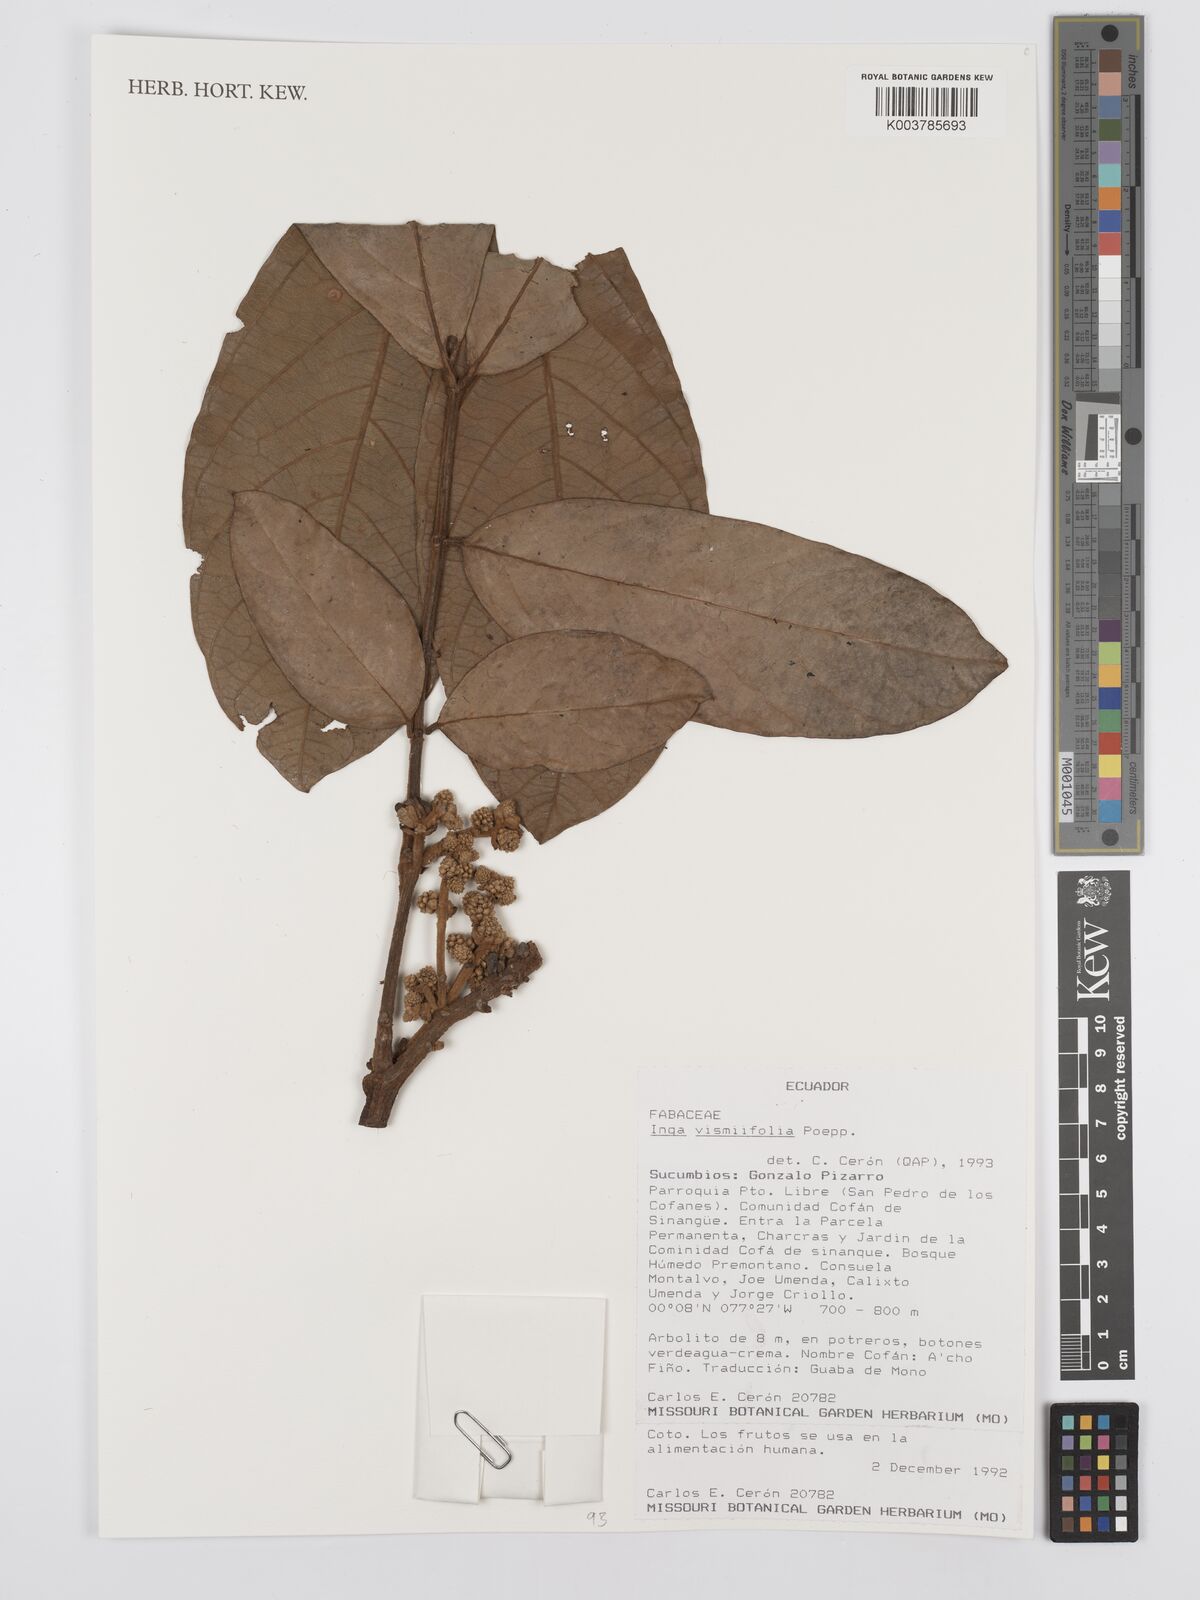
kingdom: Plantae
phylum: Tracheophyta
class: Magnoliopsida
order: Fabales
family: Fabaceae
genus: Inga
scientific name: Inga vismiifolia
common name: Howler monkey inga
